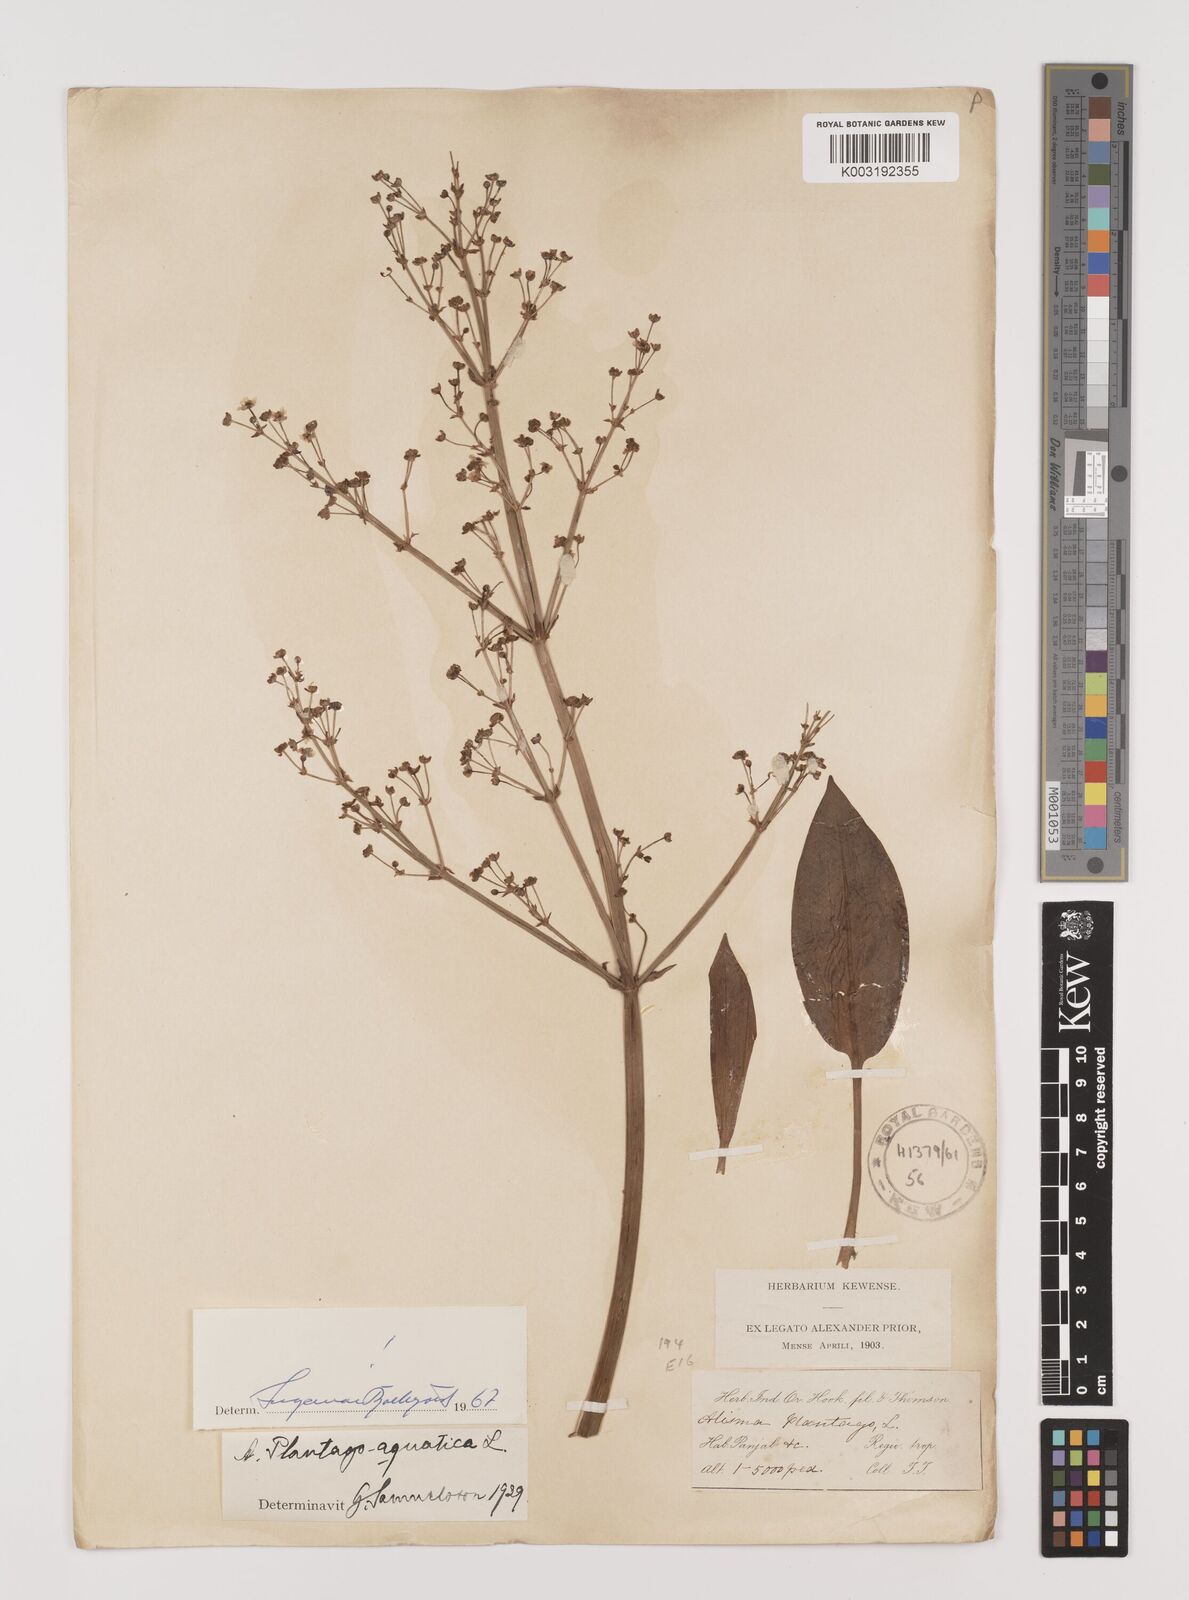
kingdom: Plantae
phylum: Tracheophyta
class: Liliopsida
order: Alismatales
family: Alismataceae
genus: Alisma
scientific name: Alisma plantago-aquatica
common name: Water-plantain
